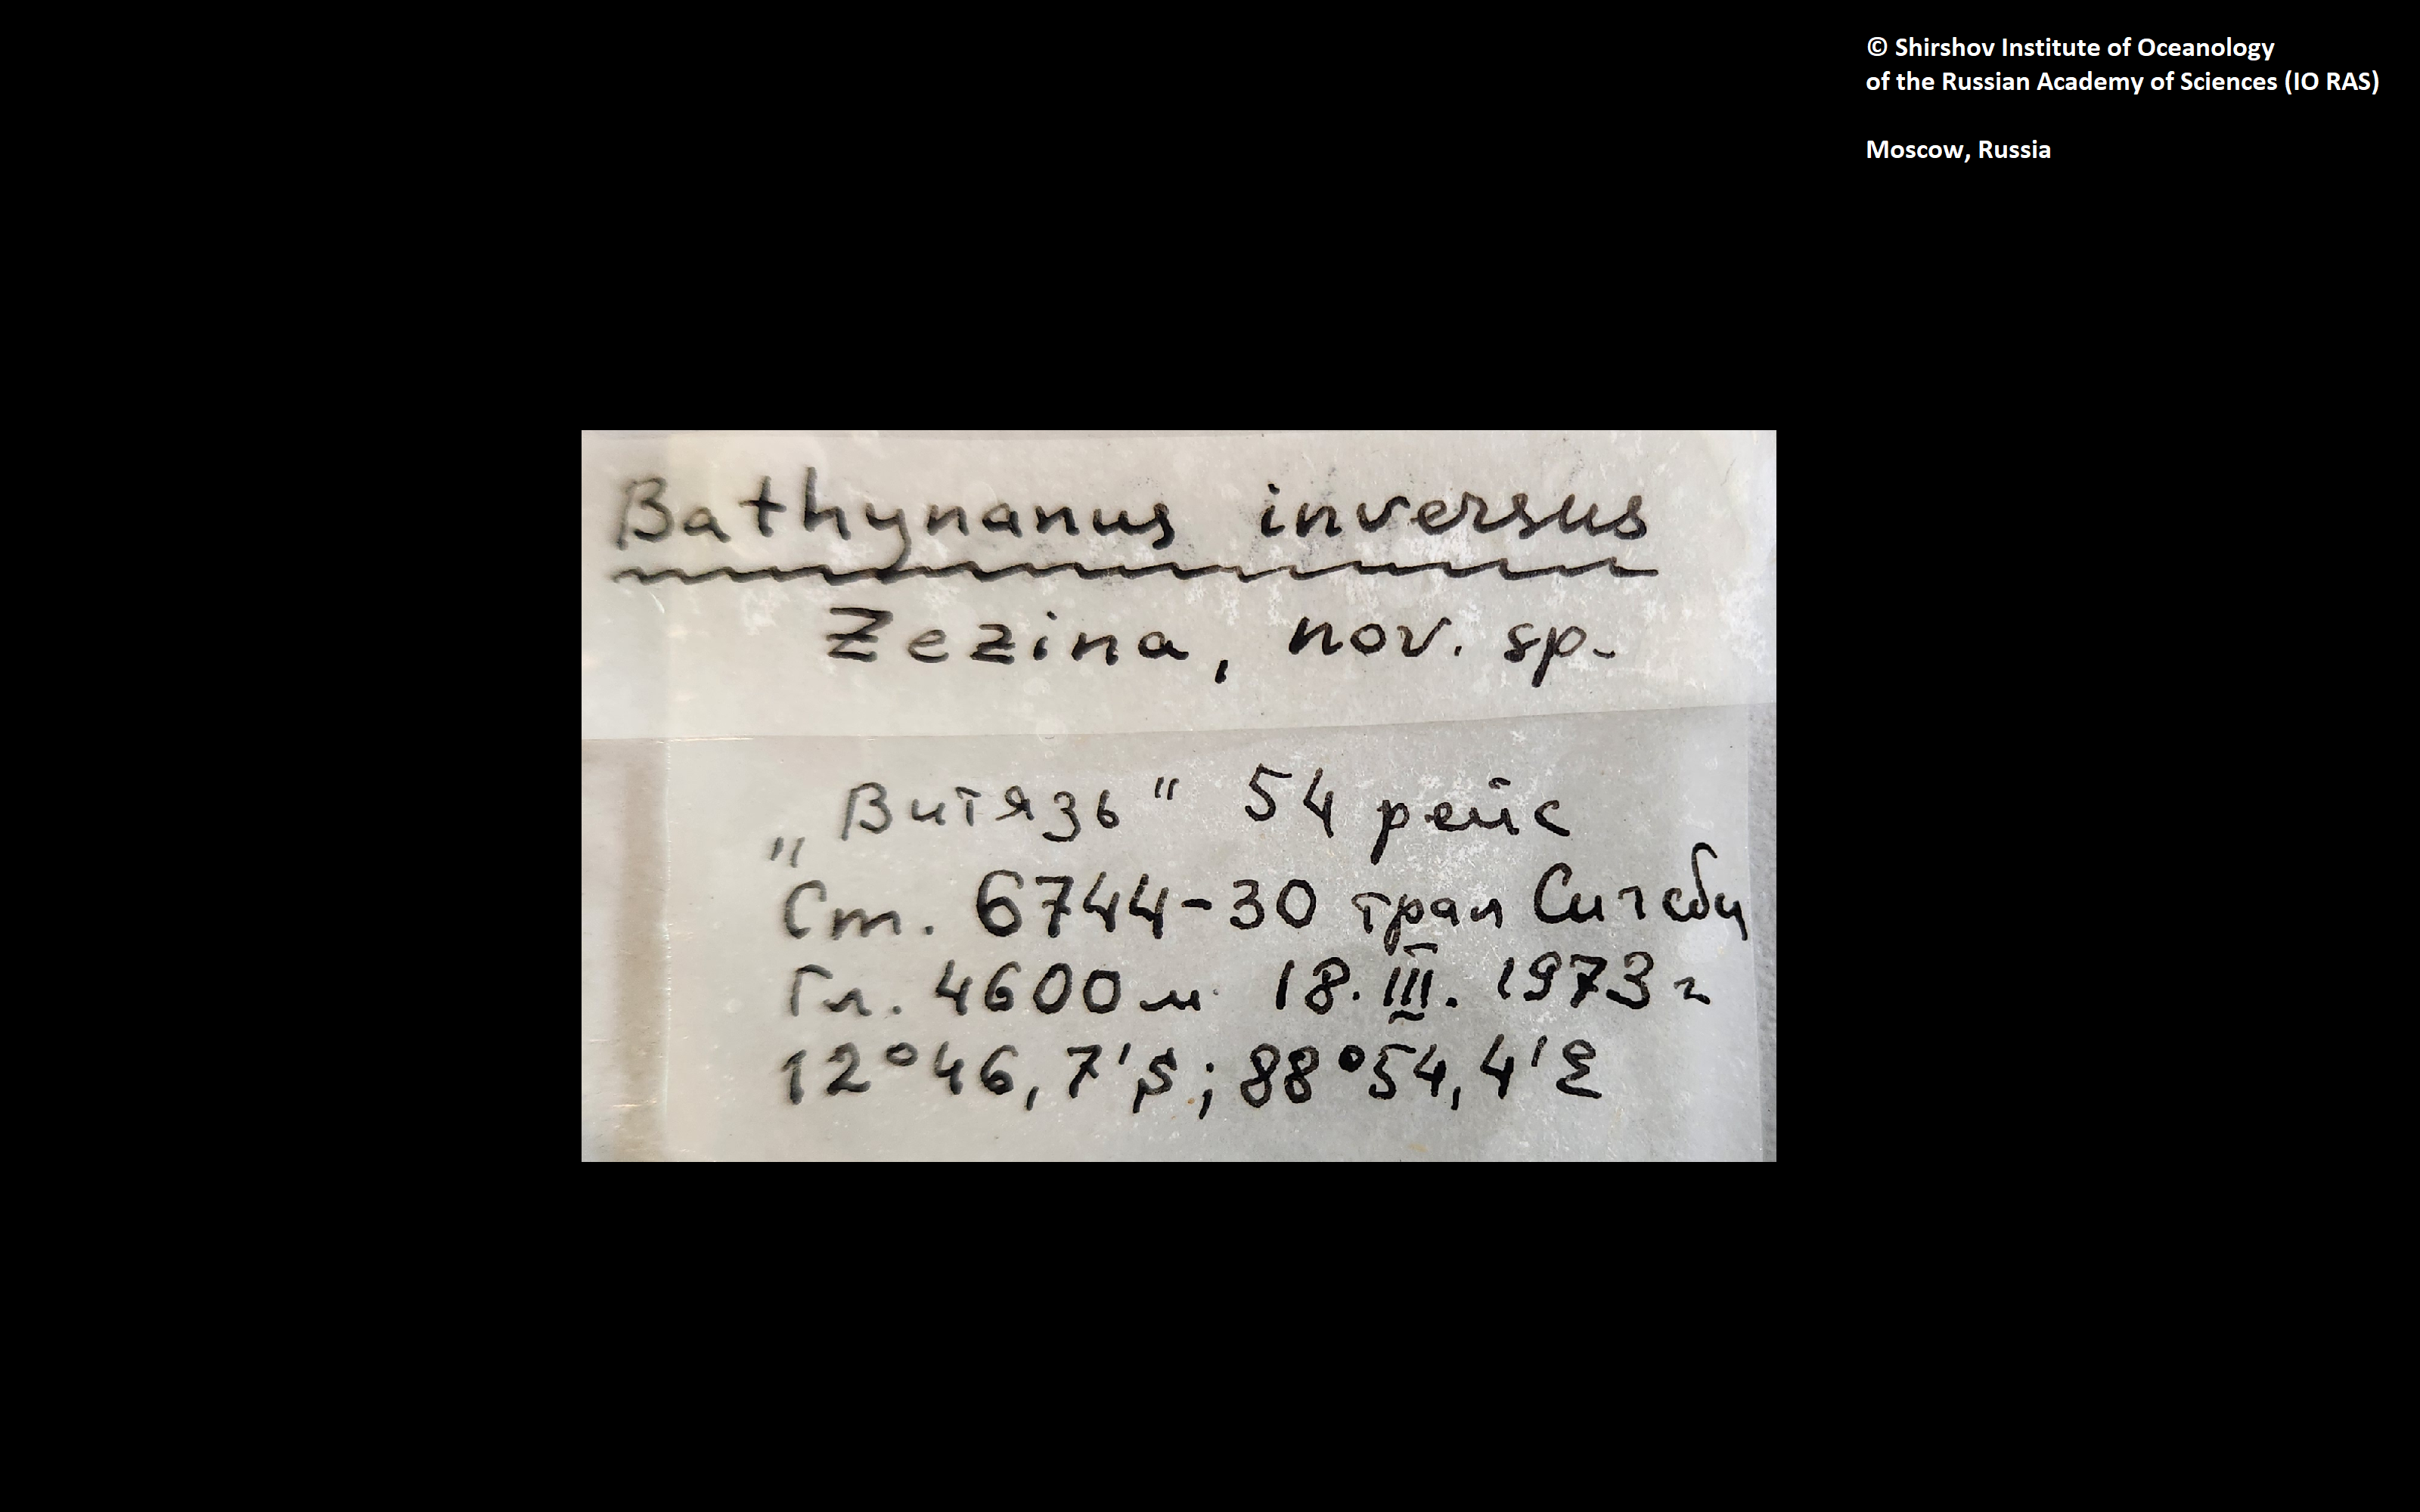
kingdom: Animalia
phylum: Brachiopoda
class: Rhynchonellata
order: Terebratulida
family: Chlidonophoridae
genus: Bathynanus
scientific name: Bathynanus inversus
